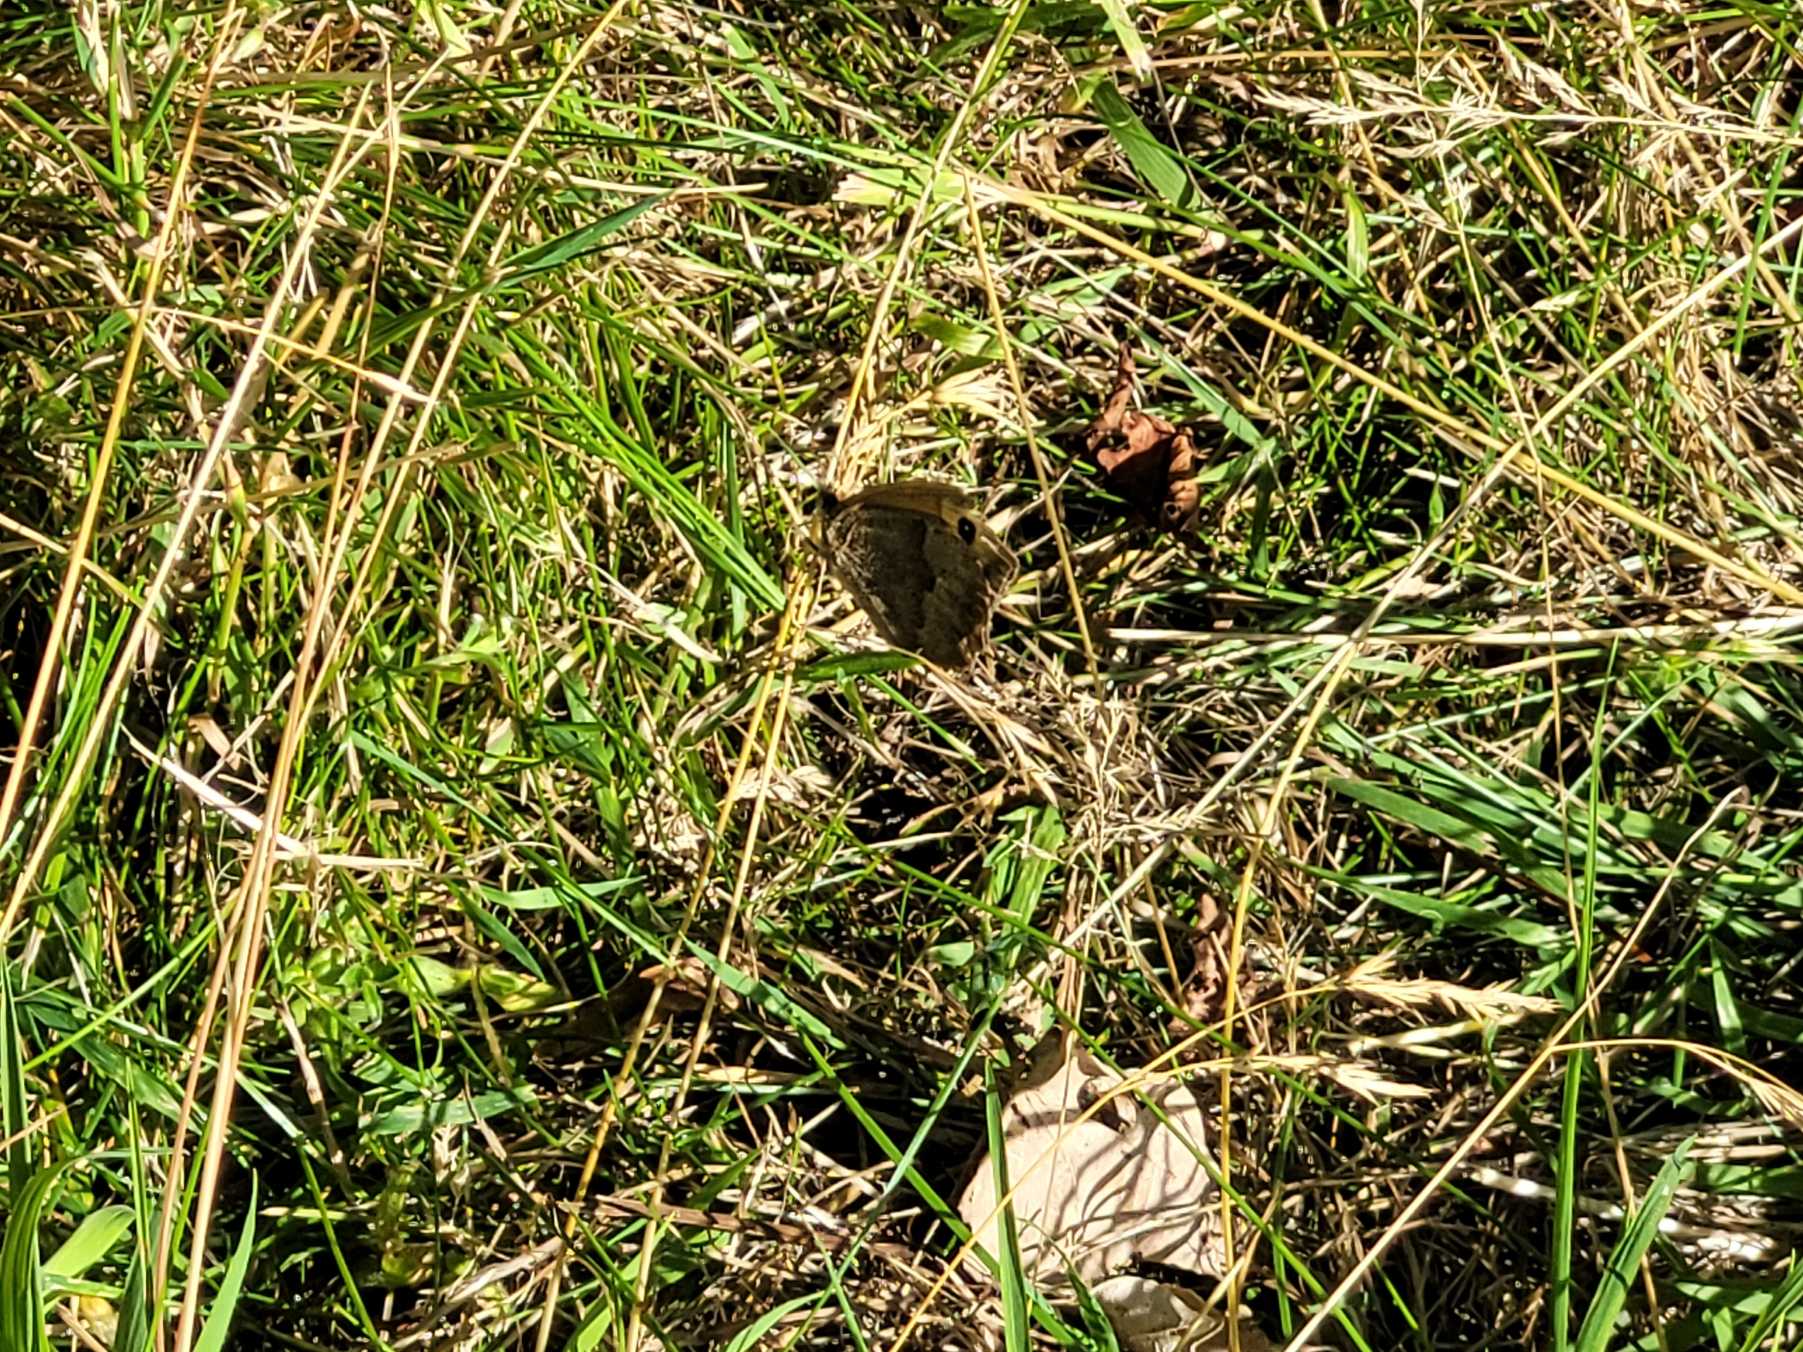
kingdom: Animalia
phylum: Arthropoda
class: Insecta
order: Lepidoptera
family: Nymphalidae
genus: Maniola
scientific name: Maniola jurtina
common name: Græsrandøje
